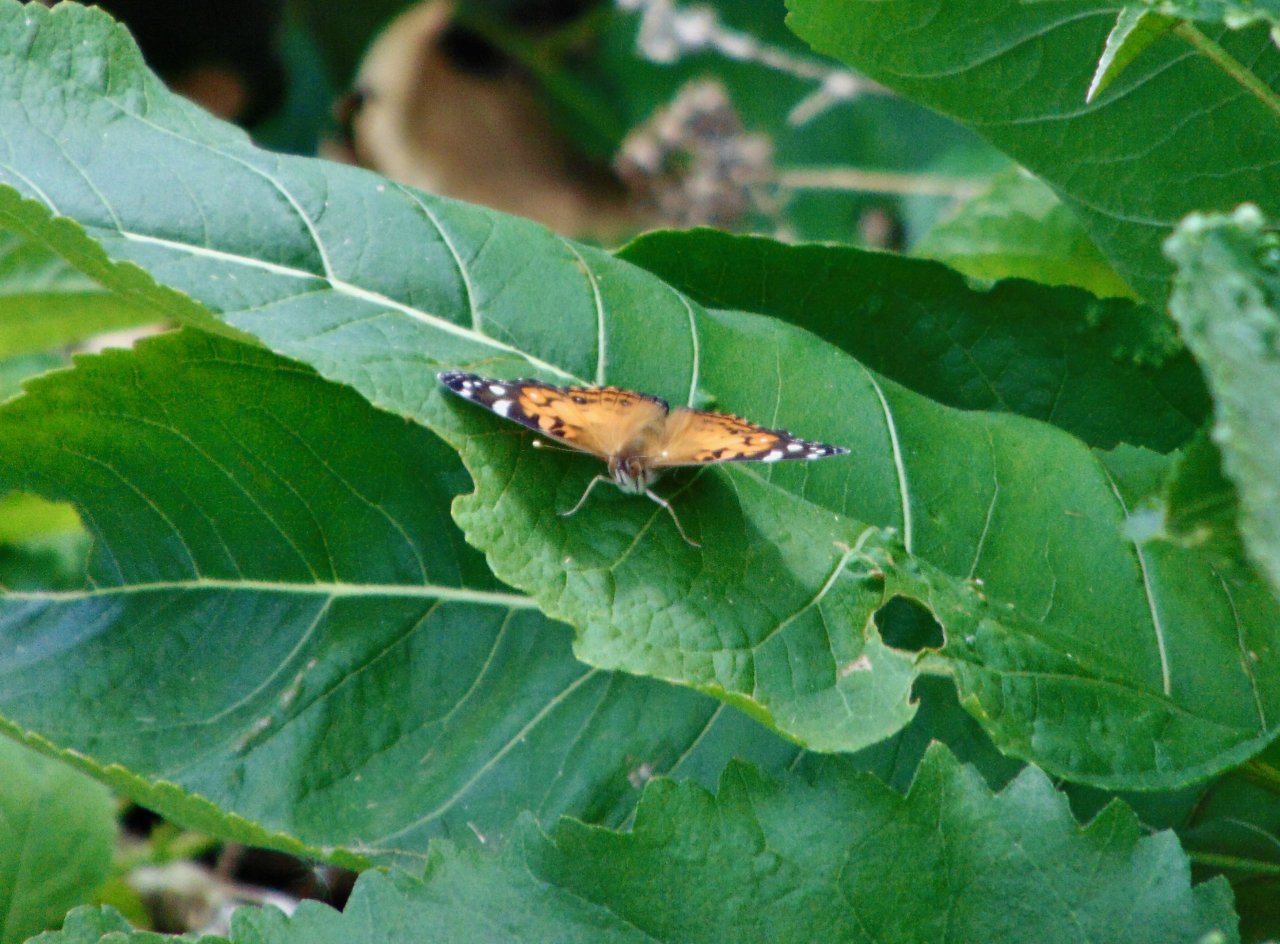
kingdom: Animalia
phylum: Arthropoda
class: Insecta
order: Lepidoptera
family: Nymphalidae
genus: Vanessa
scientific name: Vanessa virginiensis
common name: American Lady
